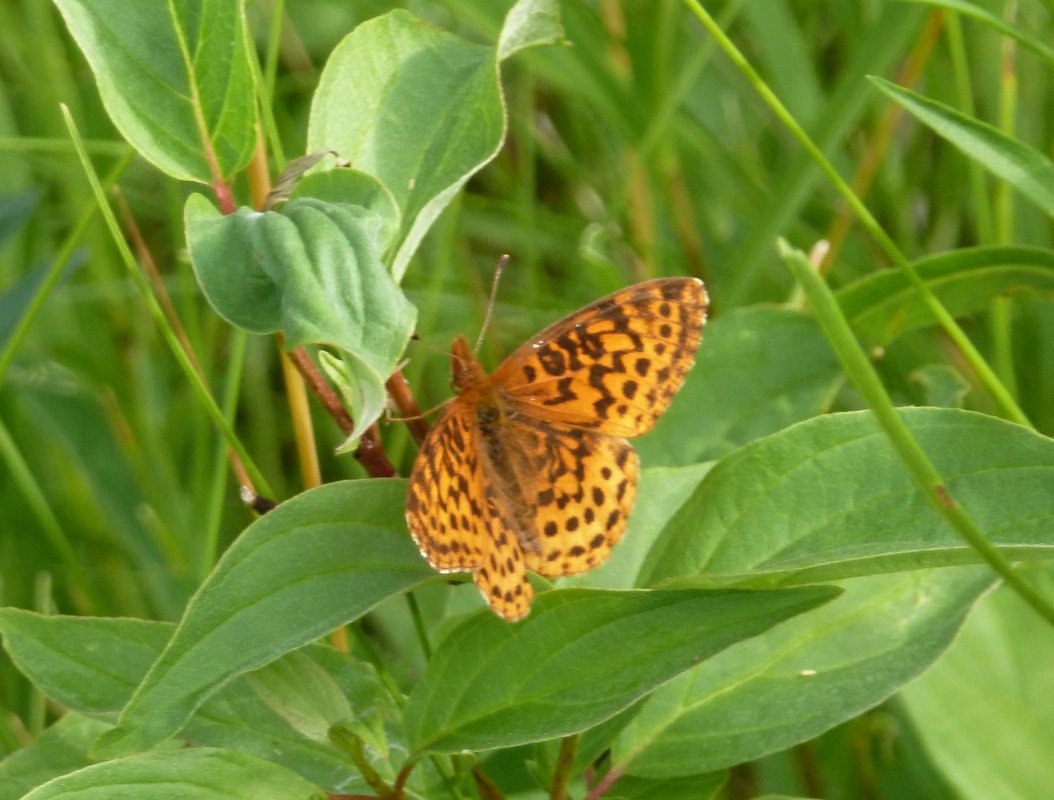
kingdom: Animalia
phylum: Arthropoda
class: Insecta
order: Lepidoptera
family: Nymphalidae
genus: Clossiana
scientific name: Clossiana toddi
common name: Meadow Fritillary
